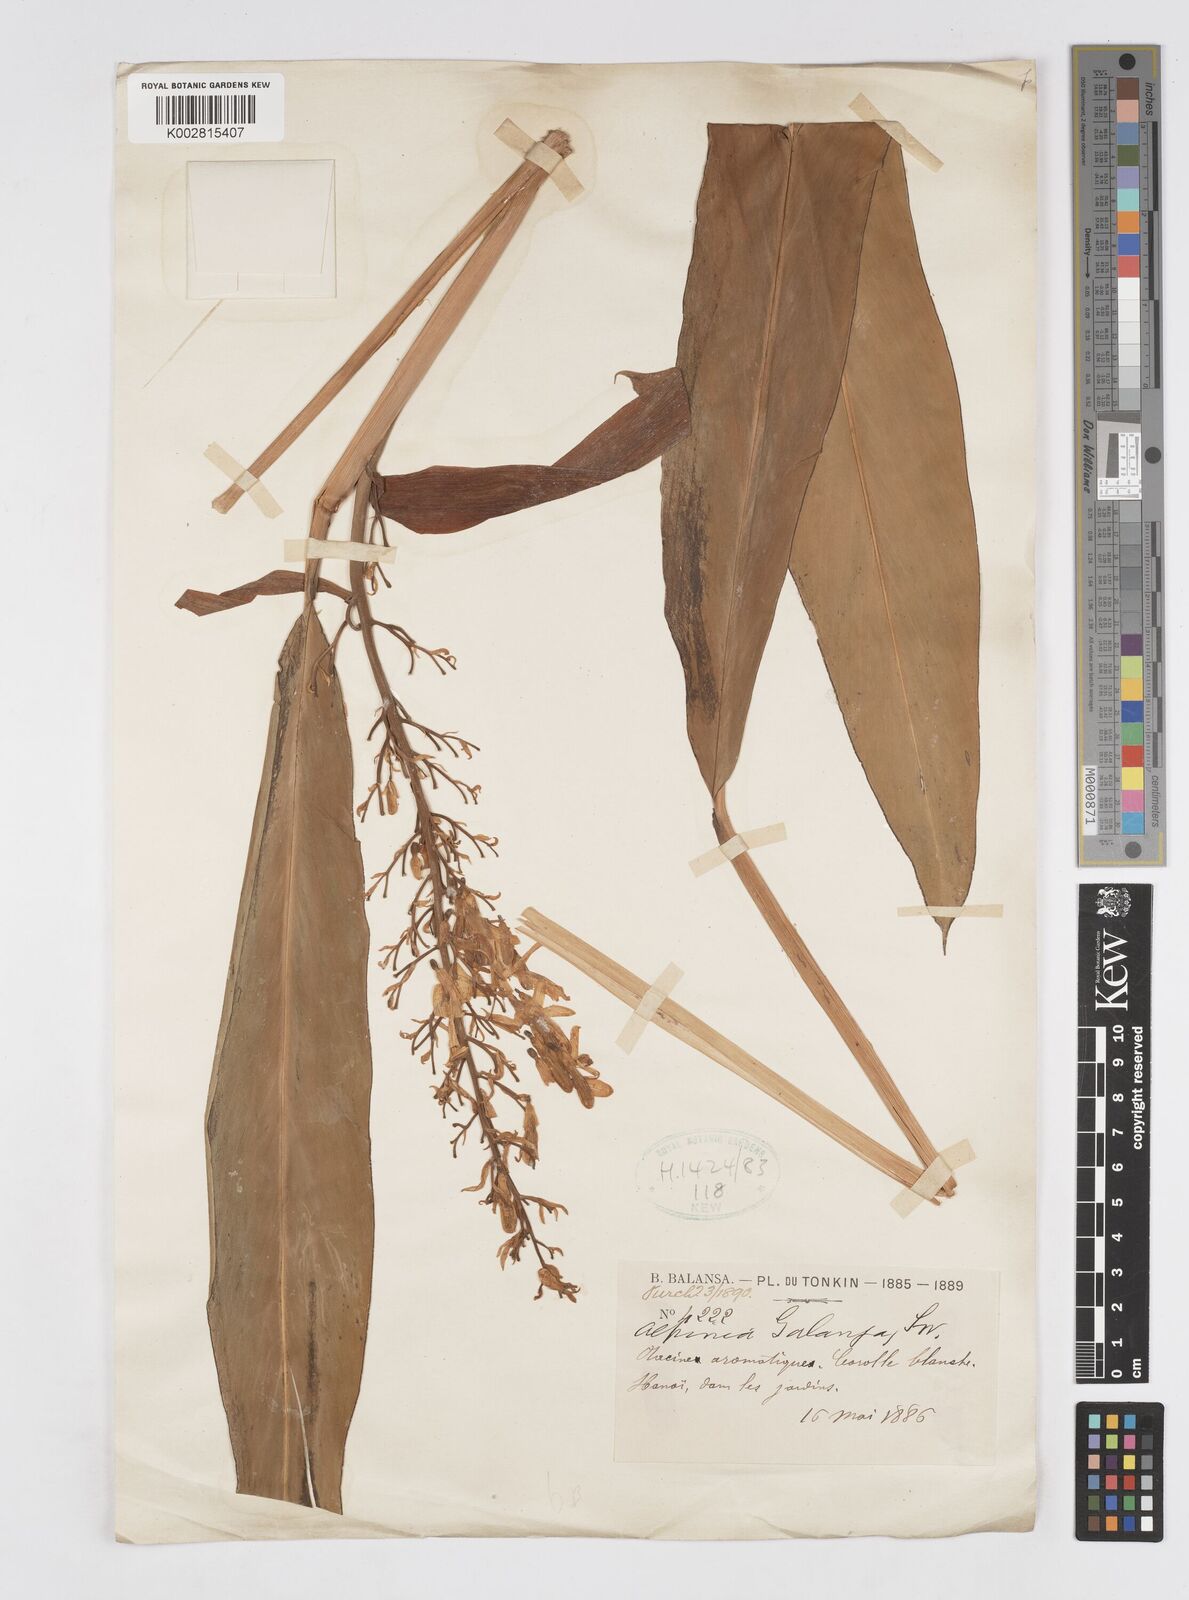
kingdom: Plantae
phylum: Tracheophyta
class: Liliopsida
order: Zingiberales
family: Zingiberaceae
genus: Alpinia
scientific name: Alpinia galanga
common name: Siamese-ginger
